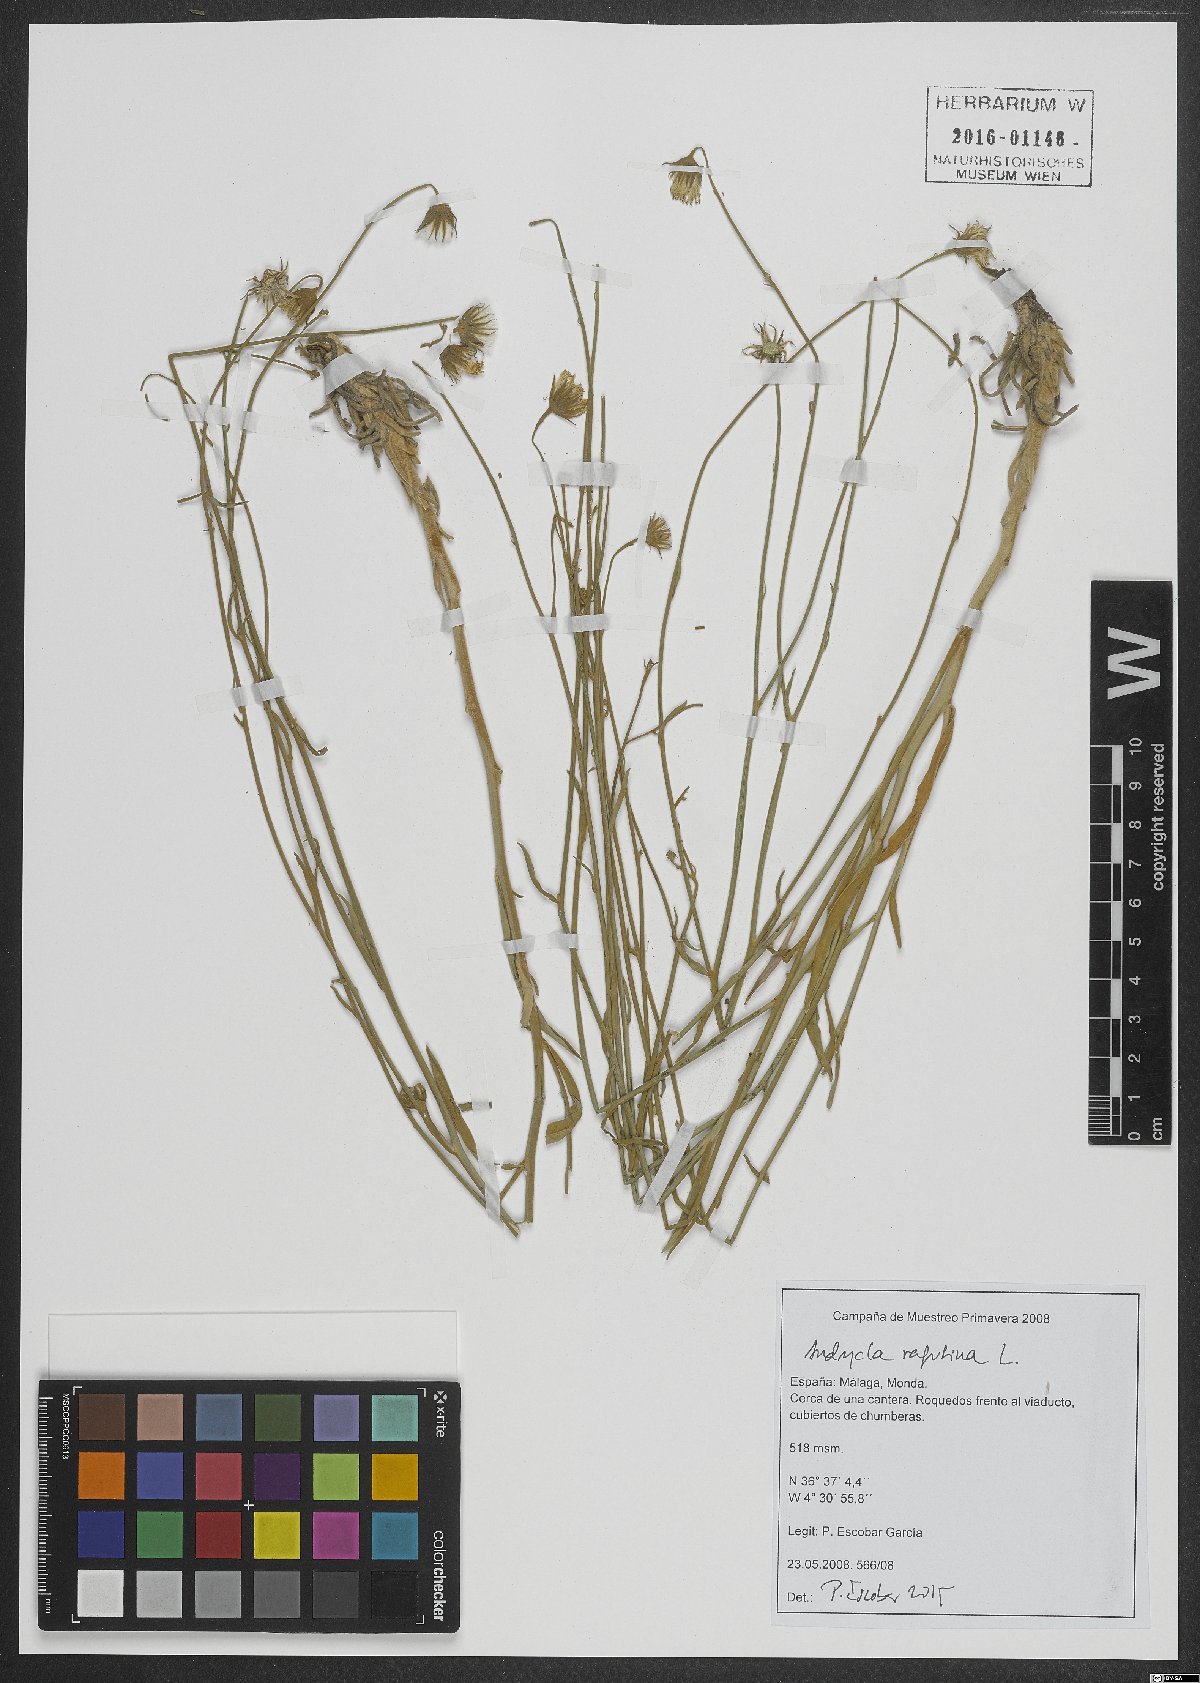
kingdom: Plantae
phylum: Tracheophyta
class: Magnoliopsida
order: Asterales
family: Asteraceae
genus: Andryala
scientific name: Andryala ragusina
